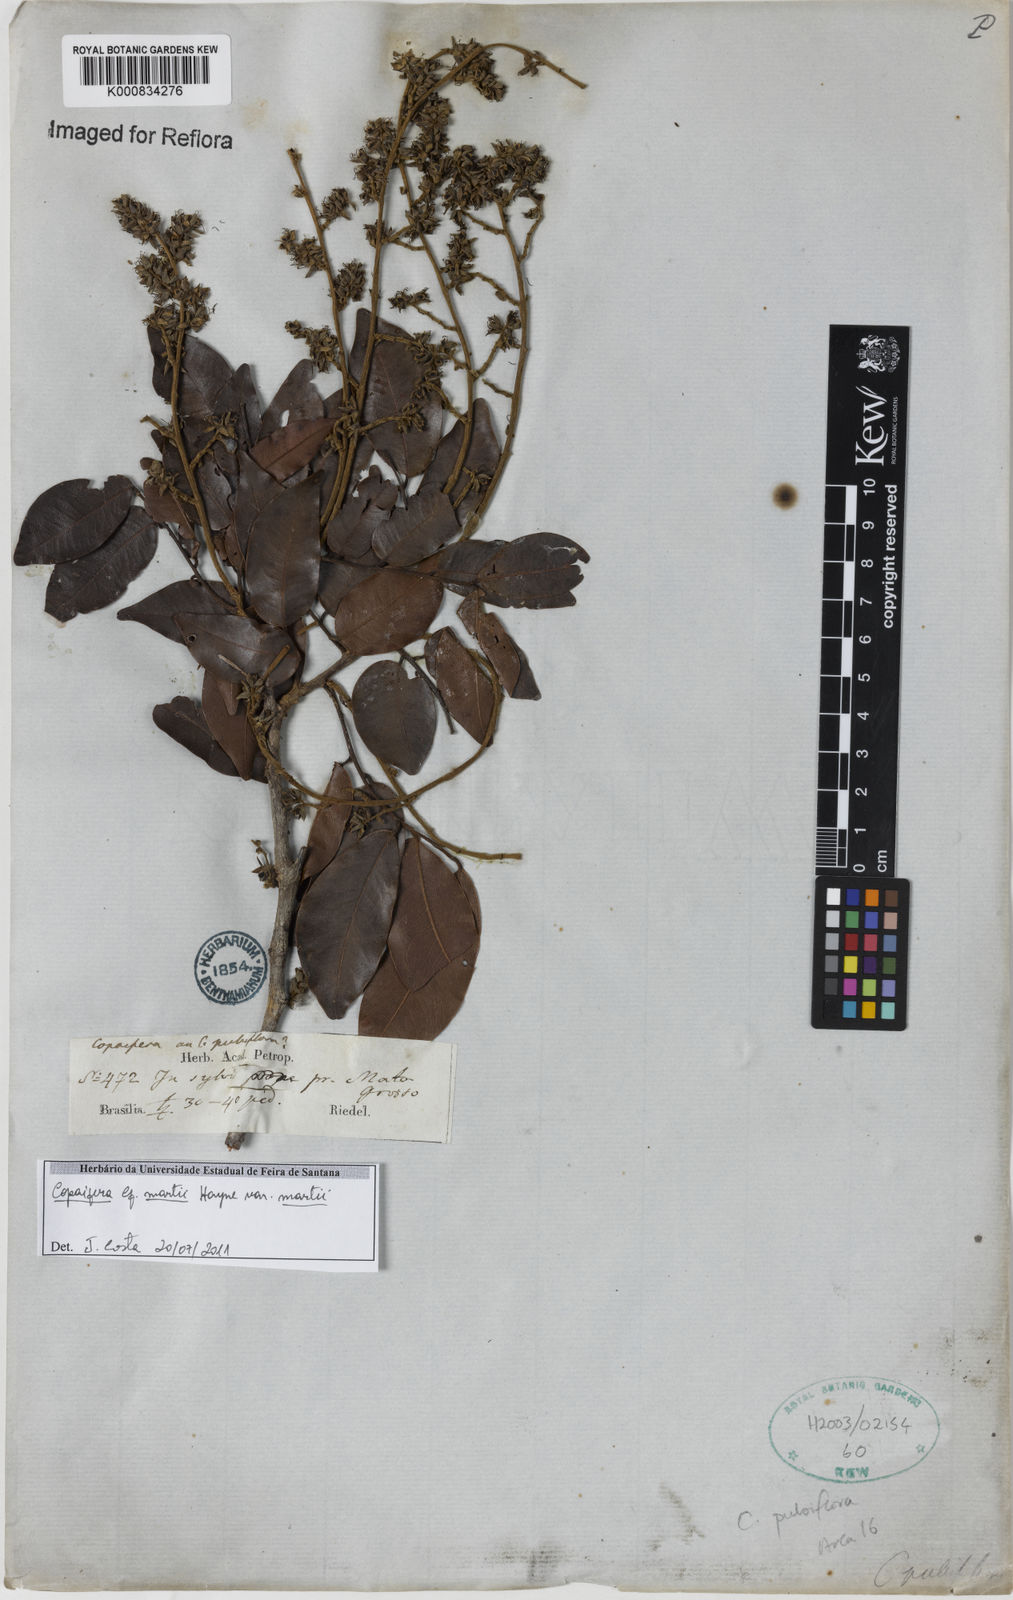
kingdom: Plantae
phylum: Tracheophyta
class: Magnoliopsida
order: Fabales
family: Fabaceae
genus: Copaifera
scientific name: Copaifera martii
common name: Copaiba
